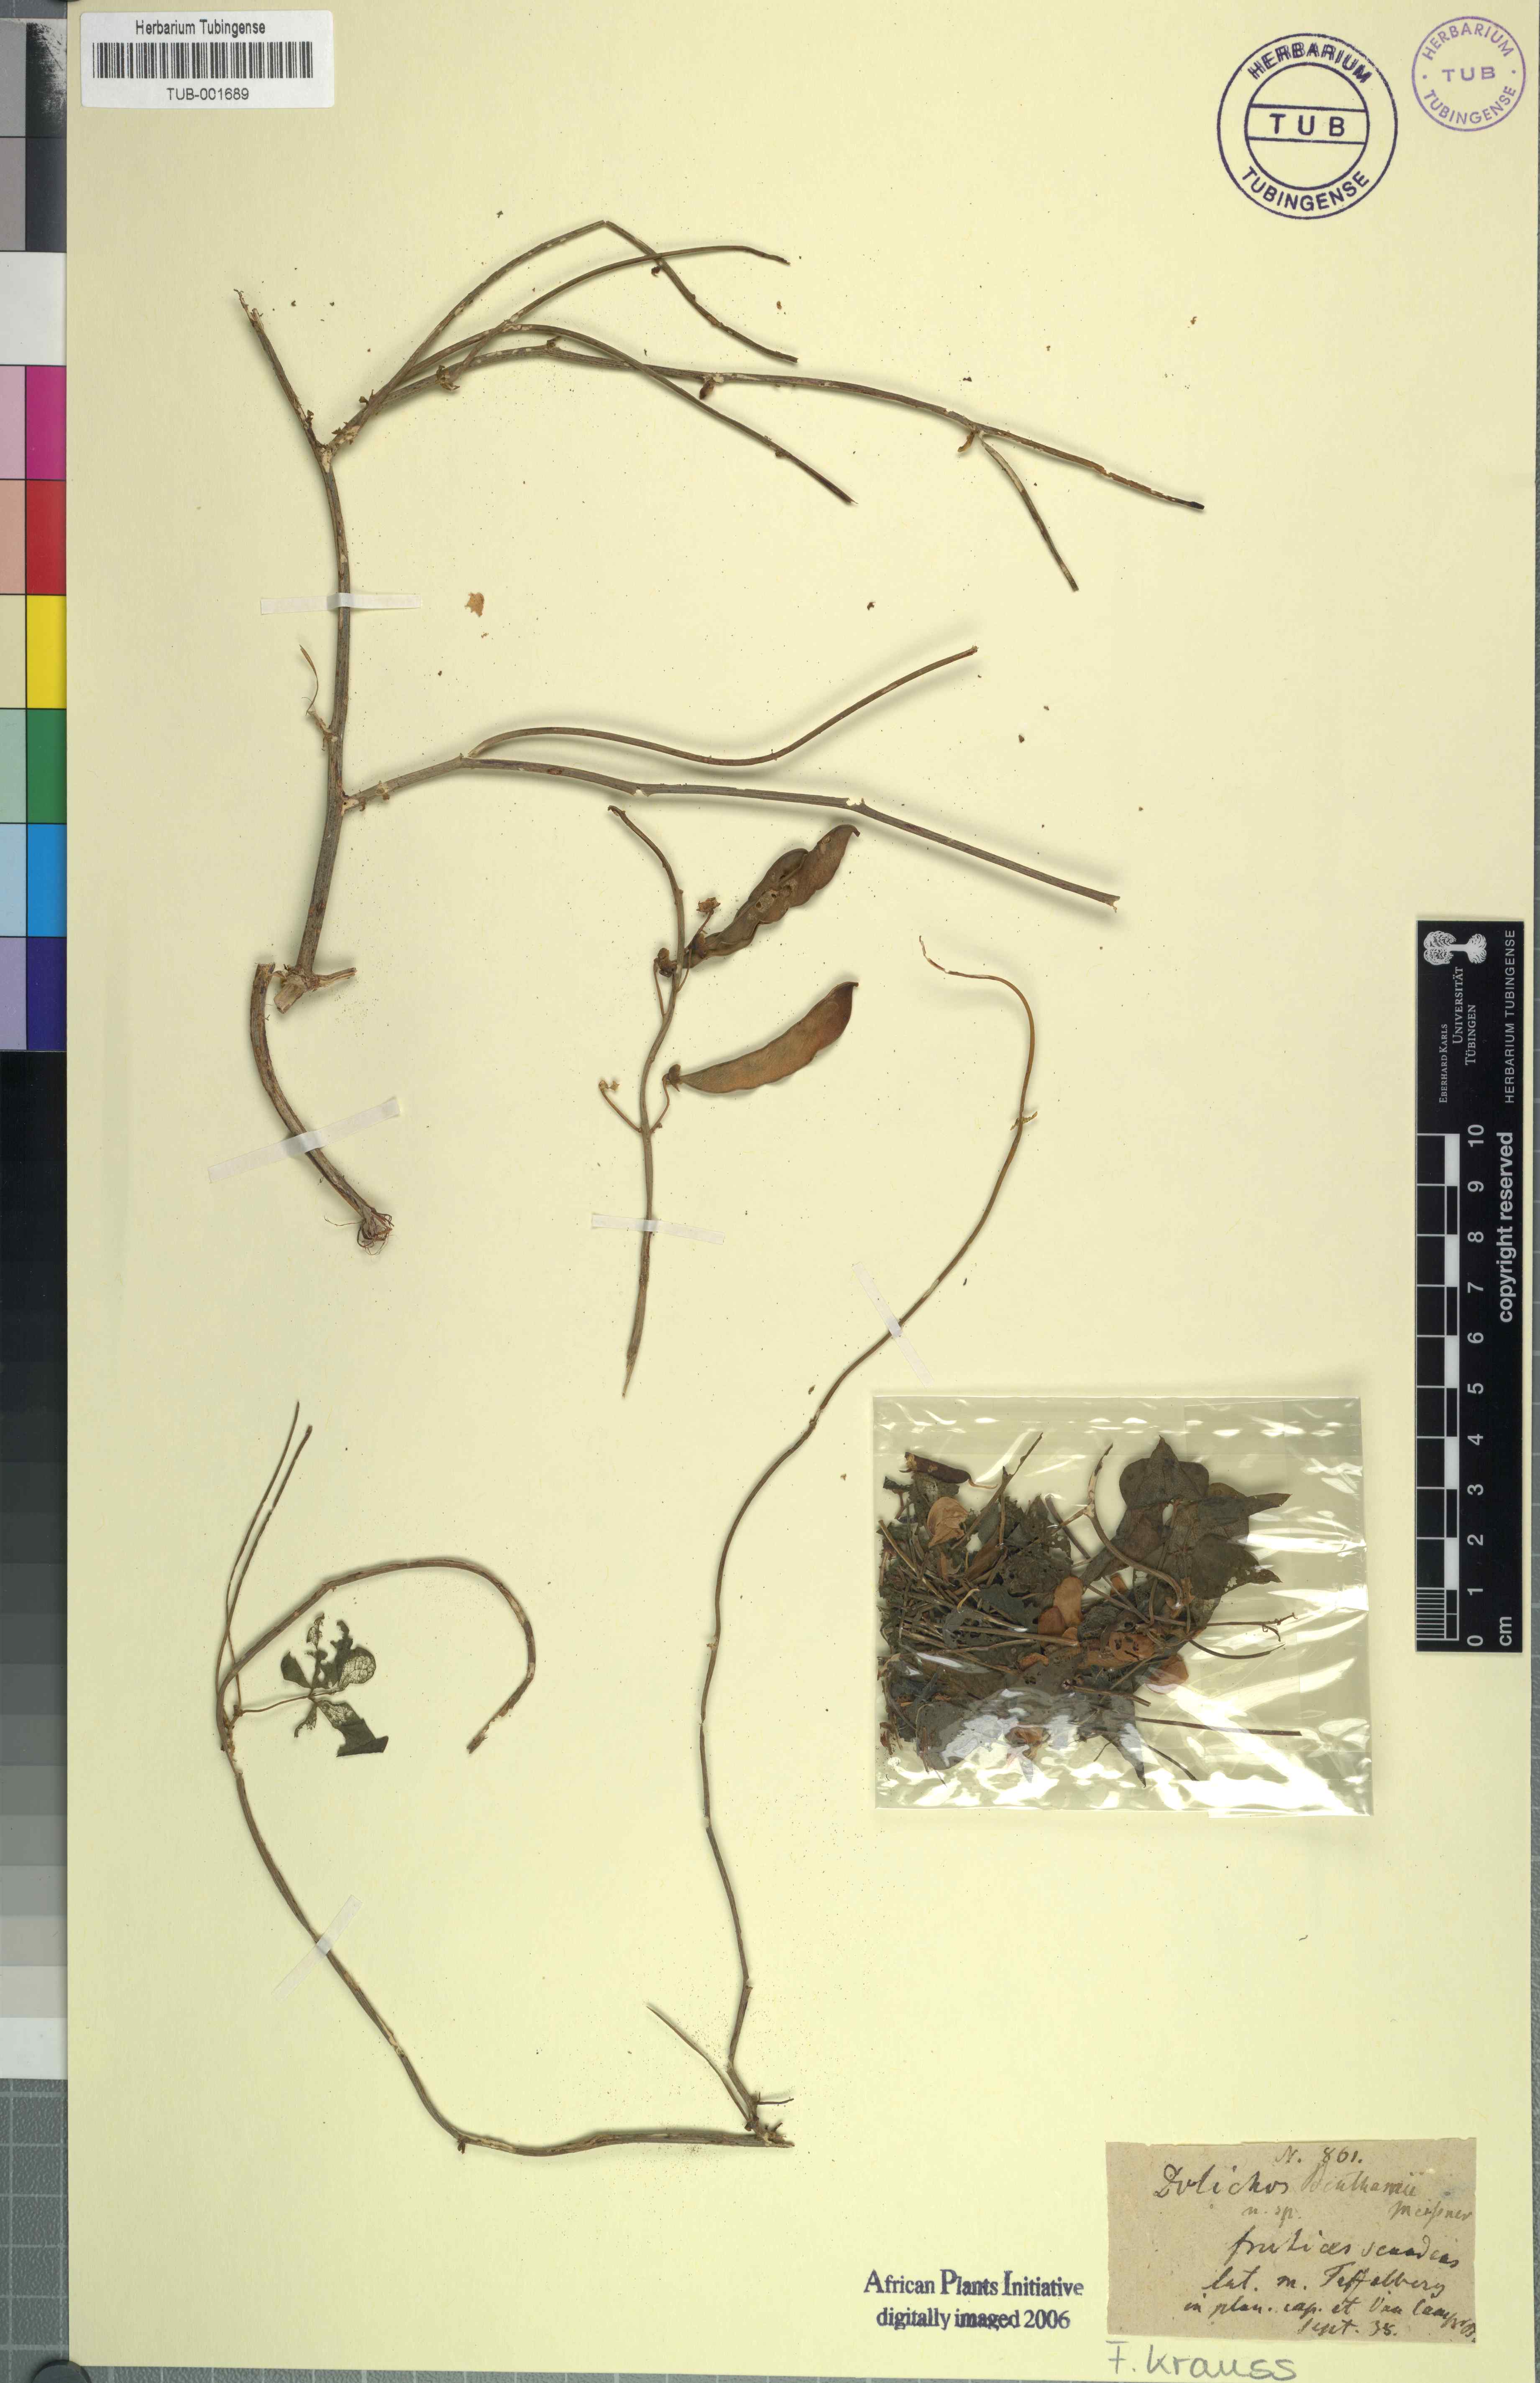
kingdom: Plantae
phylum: Tracheophyta
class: Magnoliopsida
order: Fabales
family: Fabaceae
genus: Dipogon
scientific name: Dipogon lignosus
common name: Okie bean
